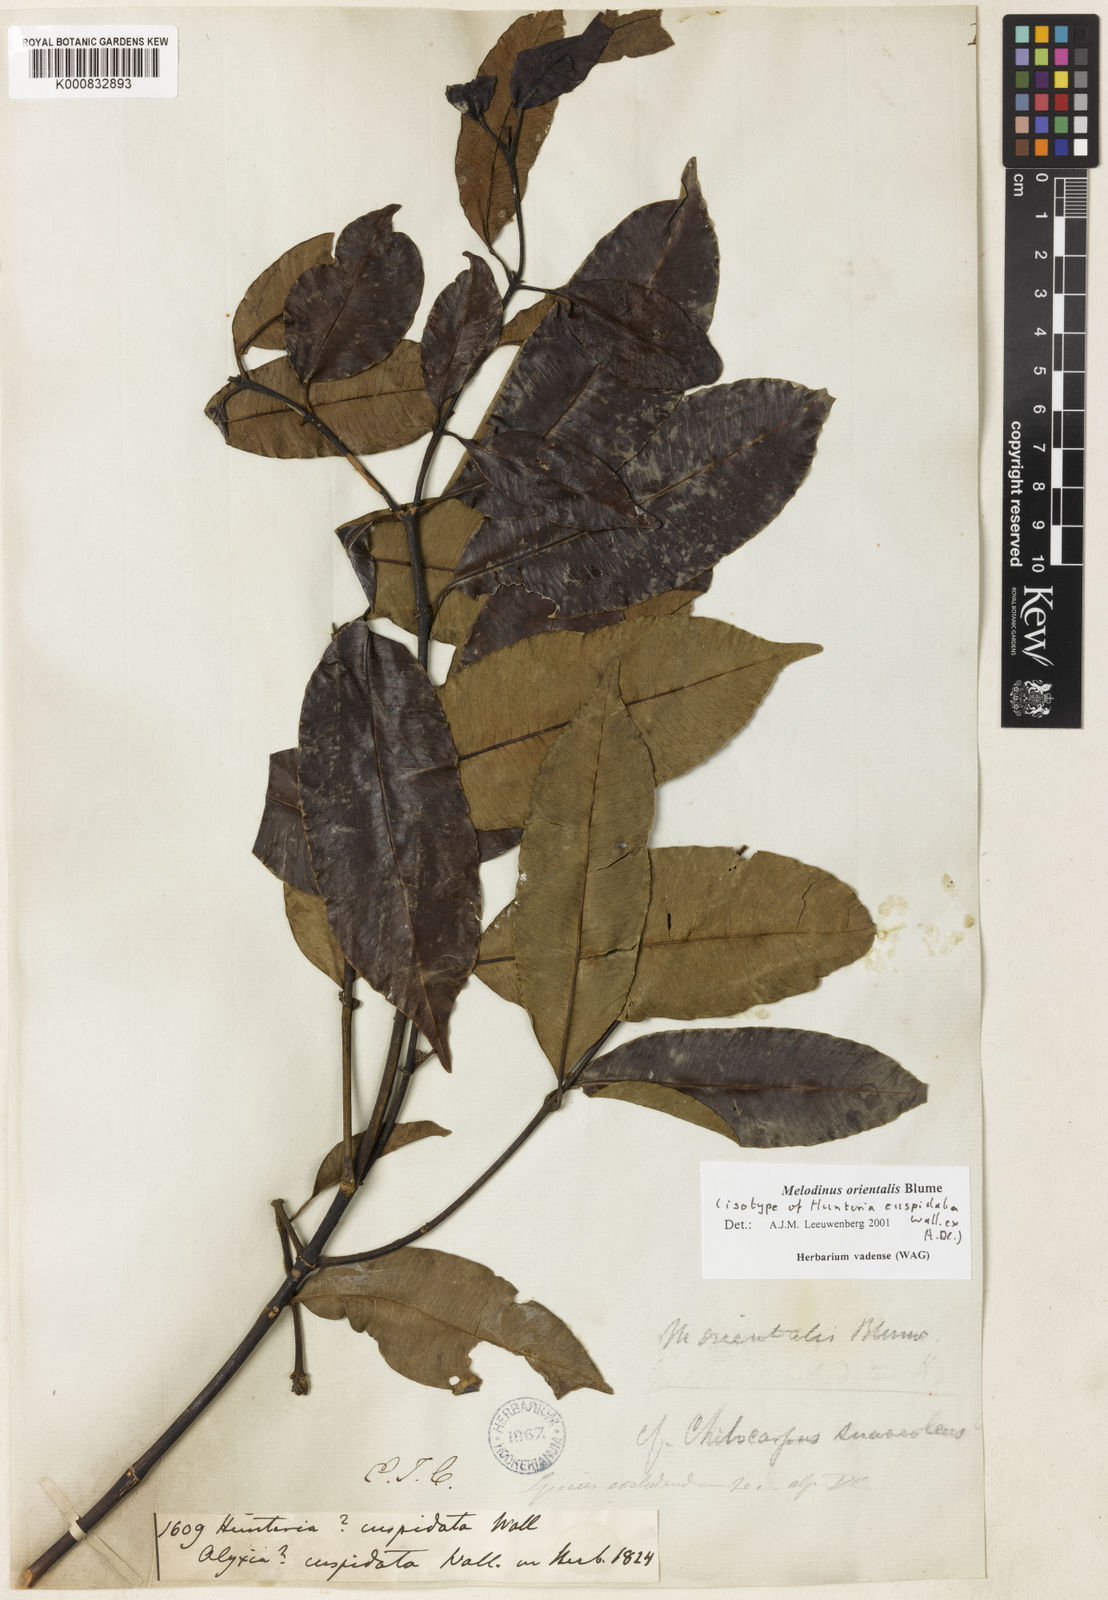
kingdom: Plantae
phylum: Tracheophyta
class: Magnoliopsida
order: Gentianales
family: Apocynaceae
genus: Melodinus
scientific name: Melodinus orientalis
